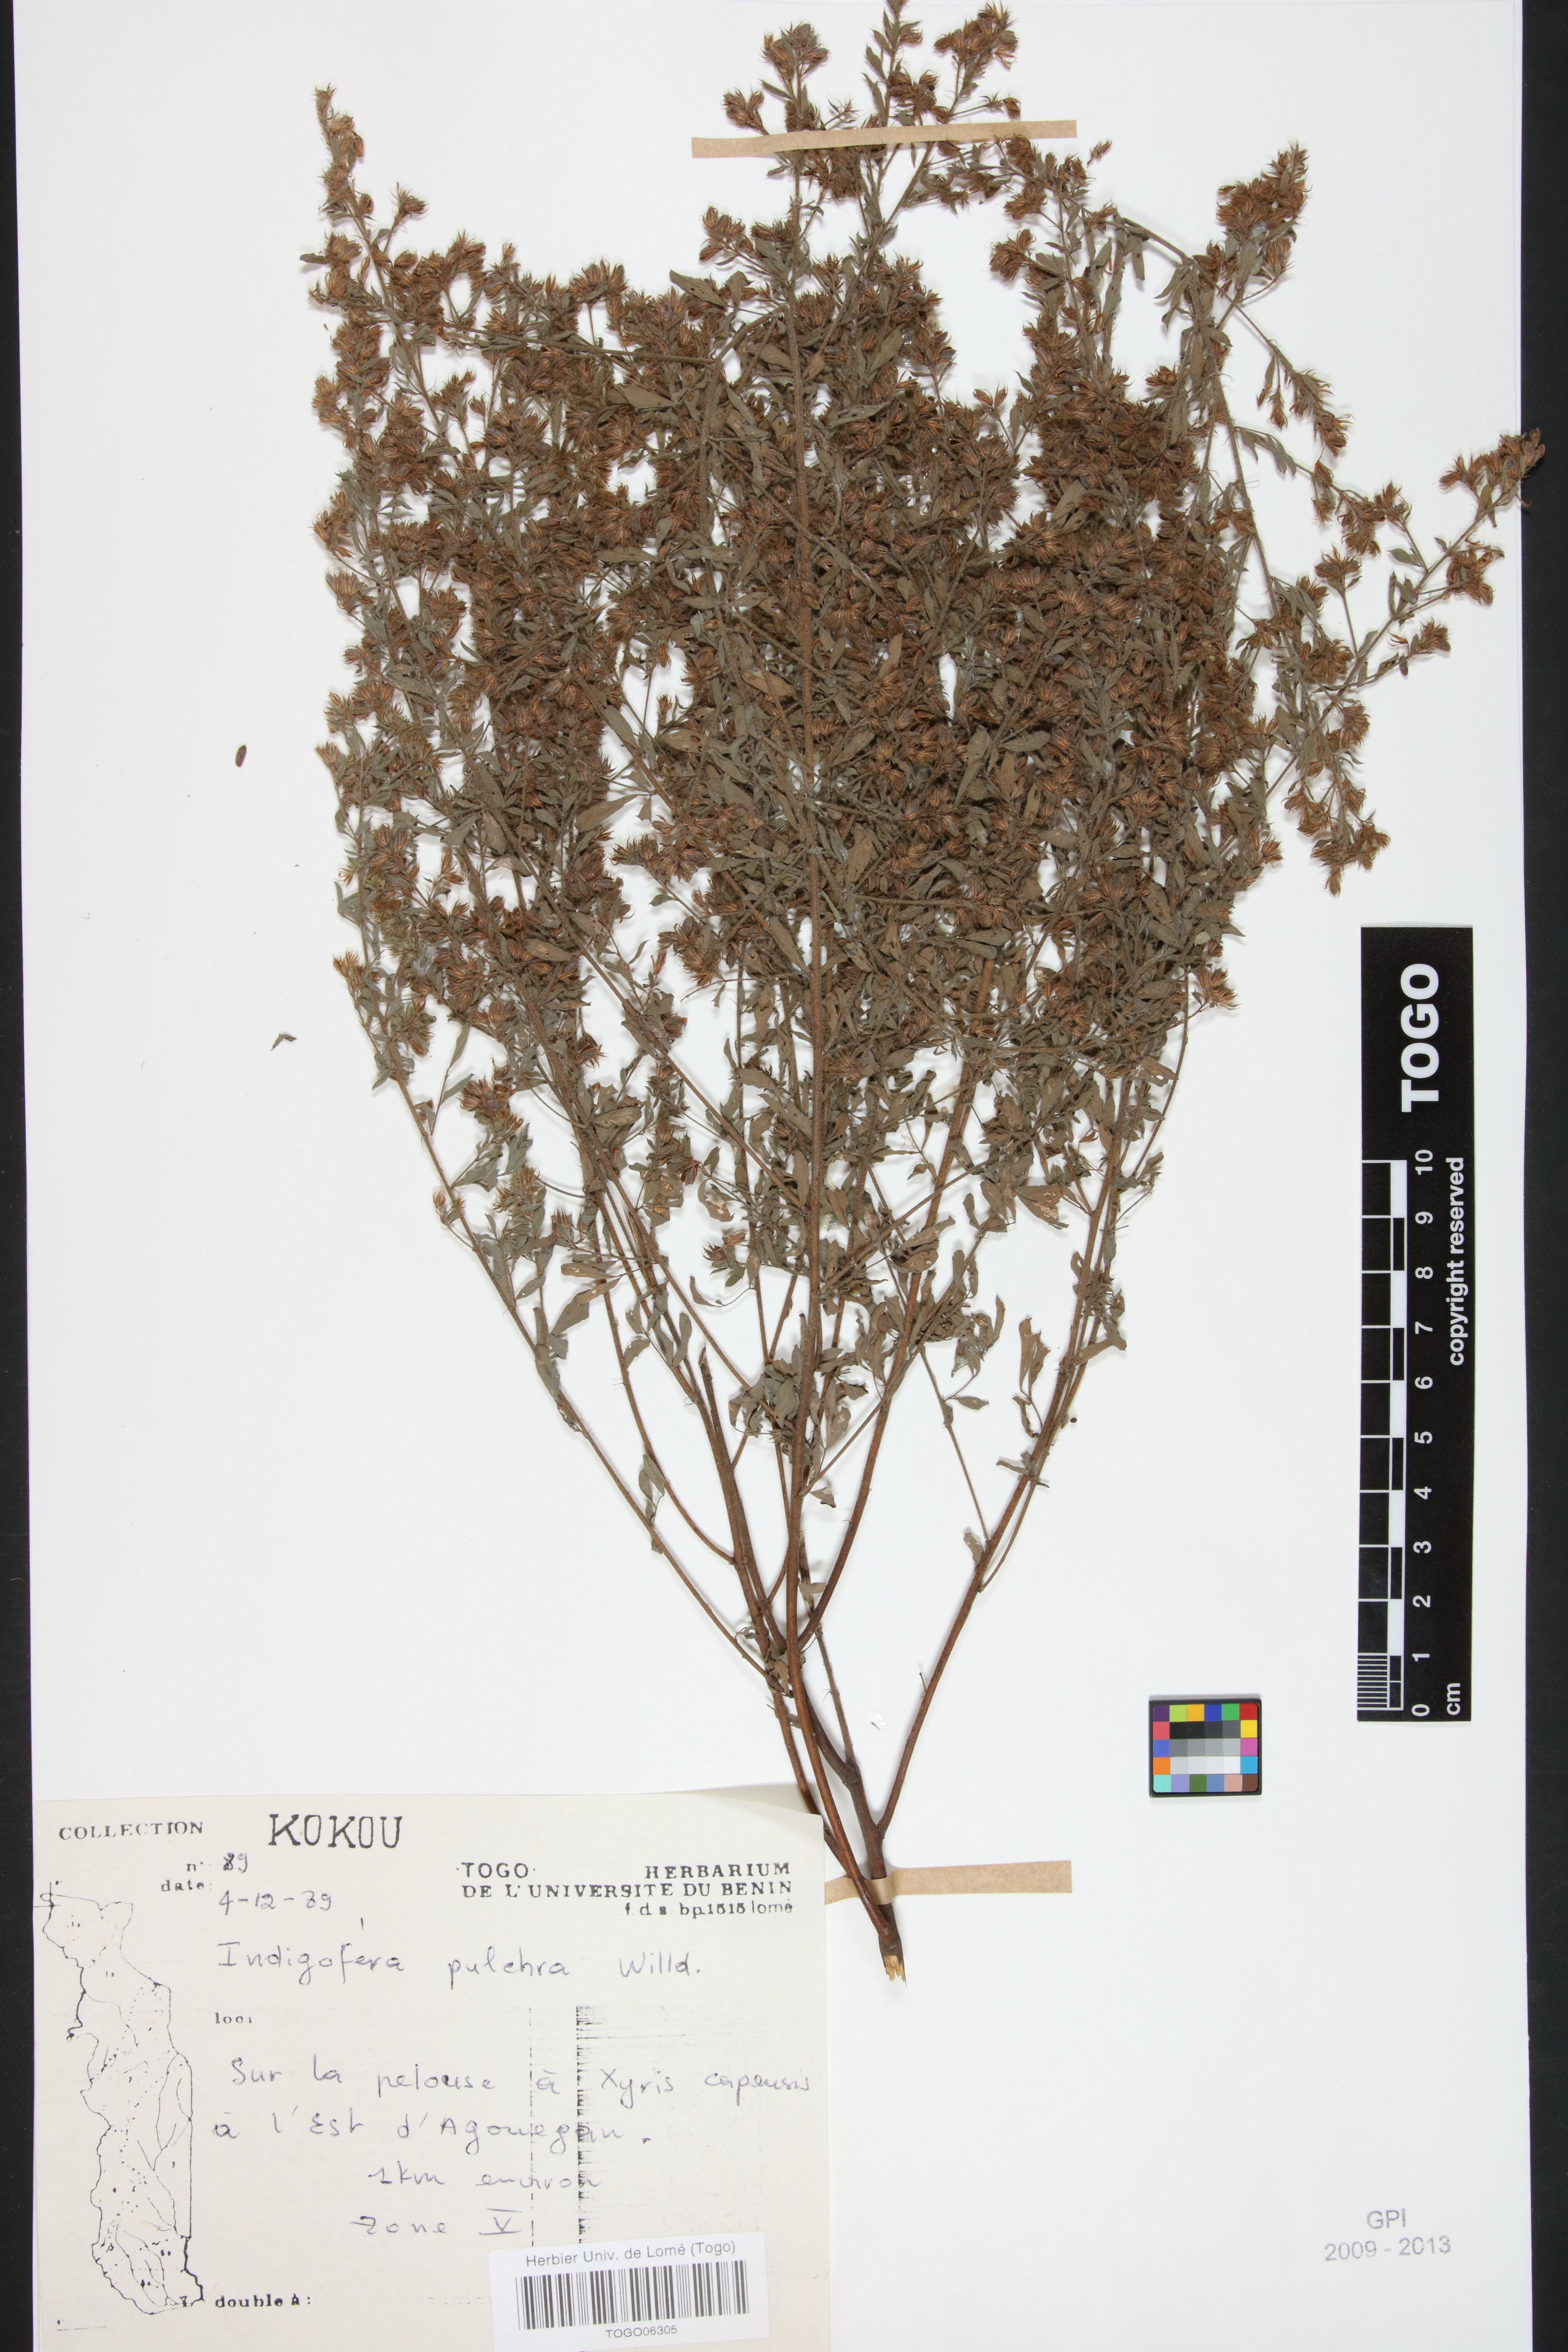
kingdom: Plantae
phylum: Tracheophyta
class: Magnoliopsida
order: Fabales
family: Fabaceae
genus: Indigofera
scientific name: Indigofera pulchra
